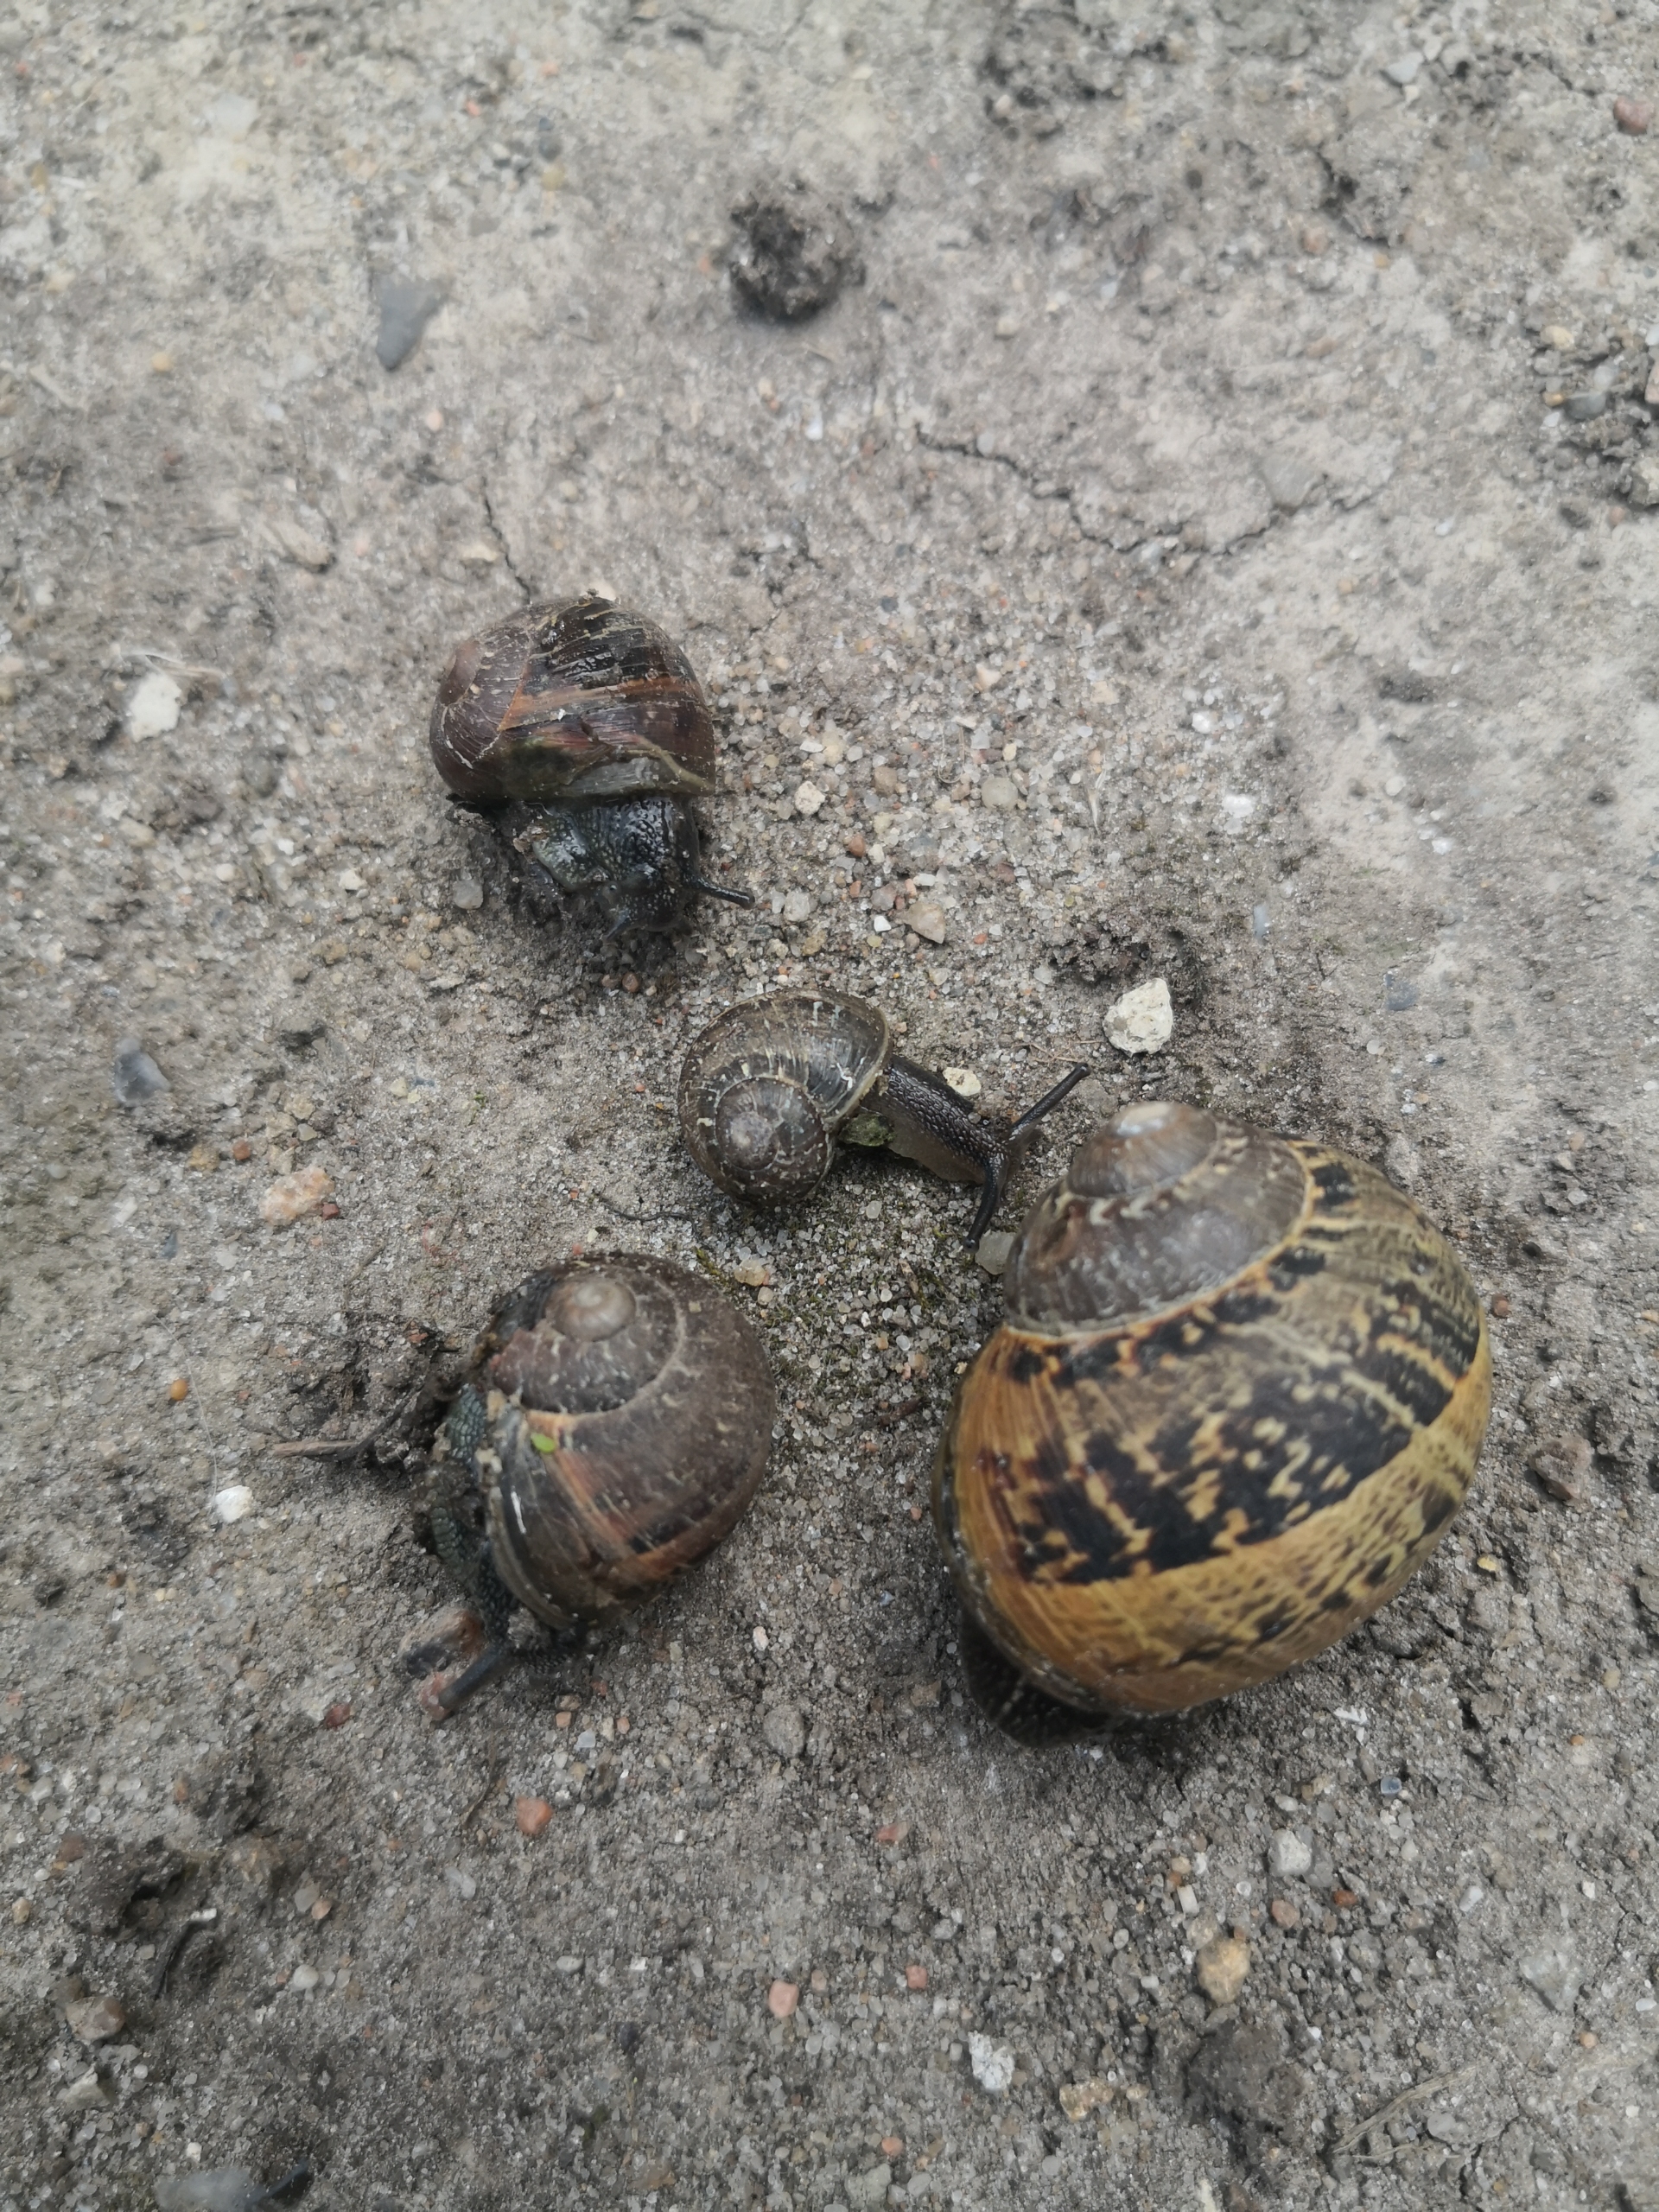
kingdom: Animalia
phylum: Mollusca
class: Gastropoda
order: Stylommatophora
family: Helicidae
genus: Cornu
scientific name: Cornu aspersum
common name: Plettet voldsnegl
